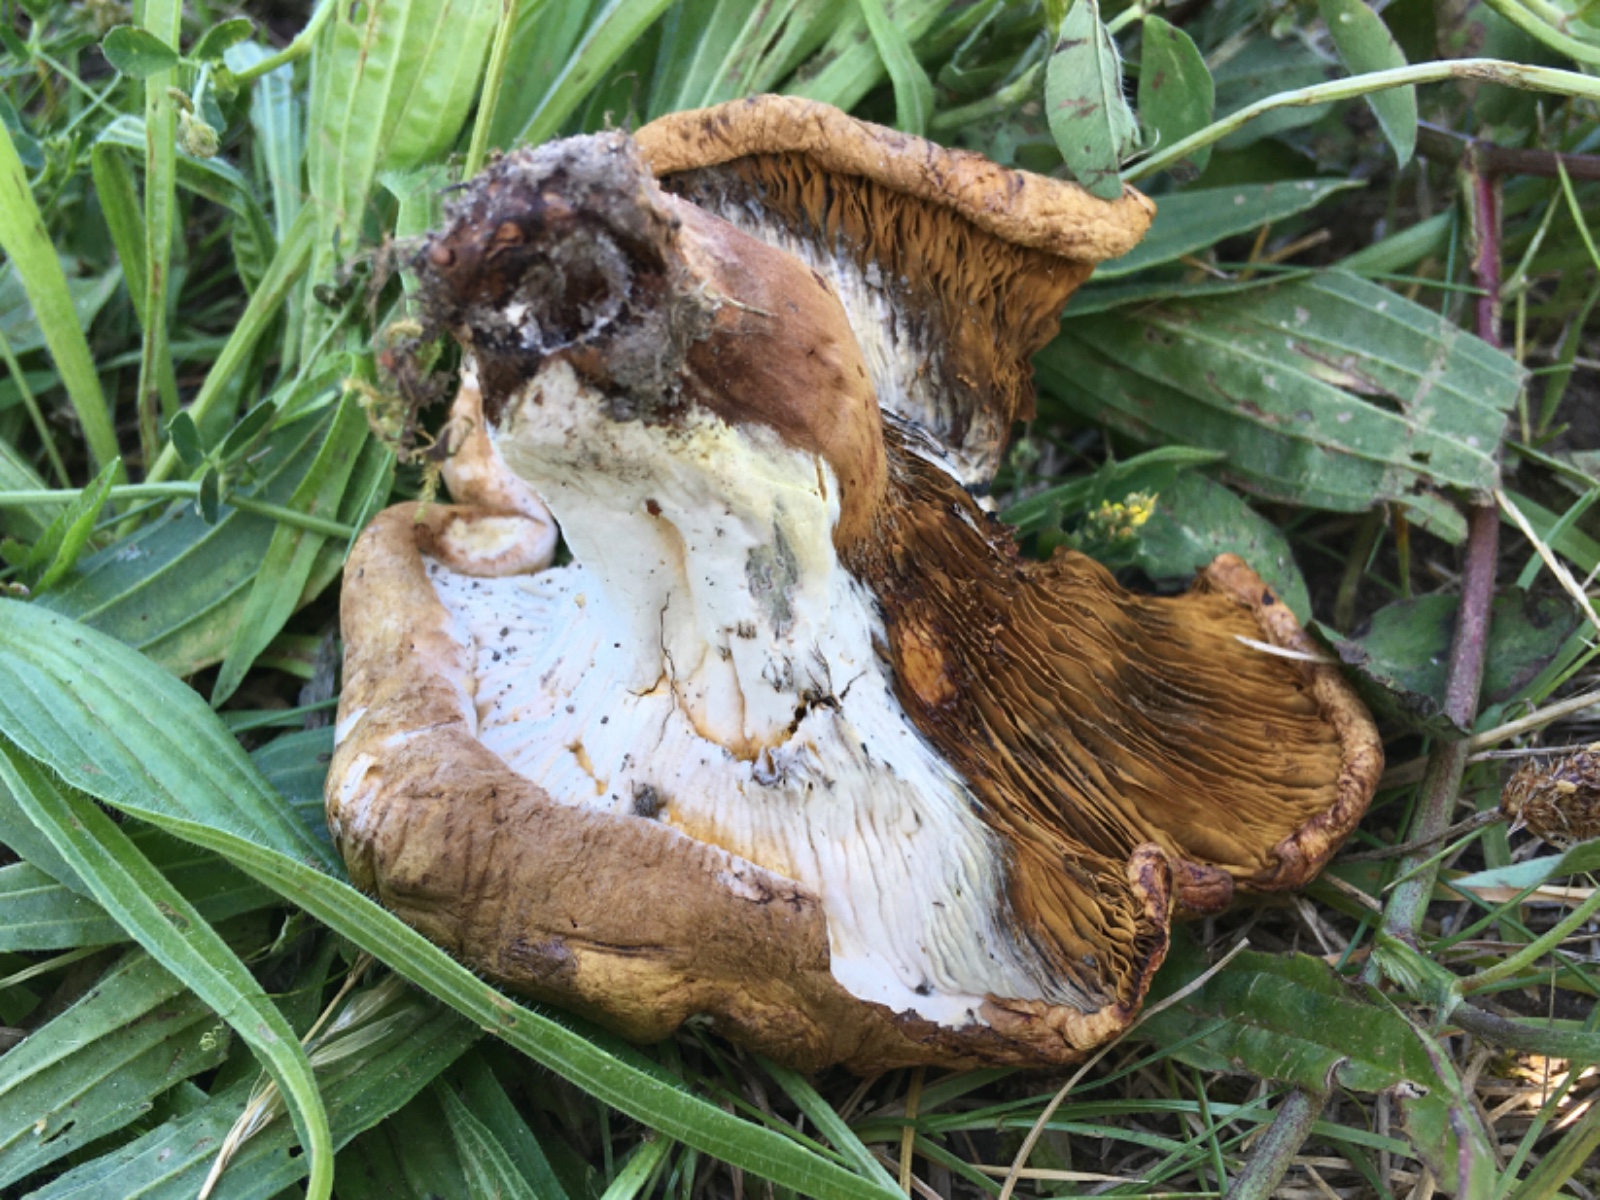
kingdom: Fungi
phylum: Ascomycota
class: Sordariomycetes
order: Hypocreales
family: Hypocreaceae
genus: Hypomyces
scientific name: Hypomyces chrysospermus
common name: gulskimmel-snylteskorpe
